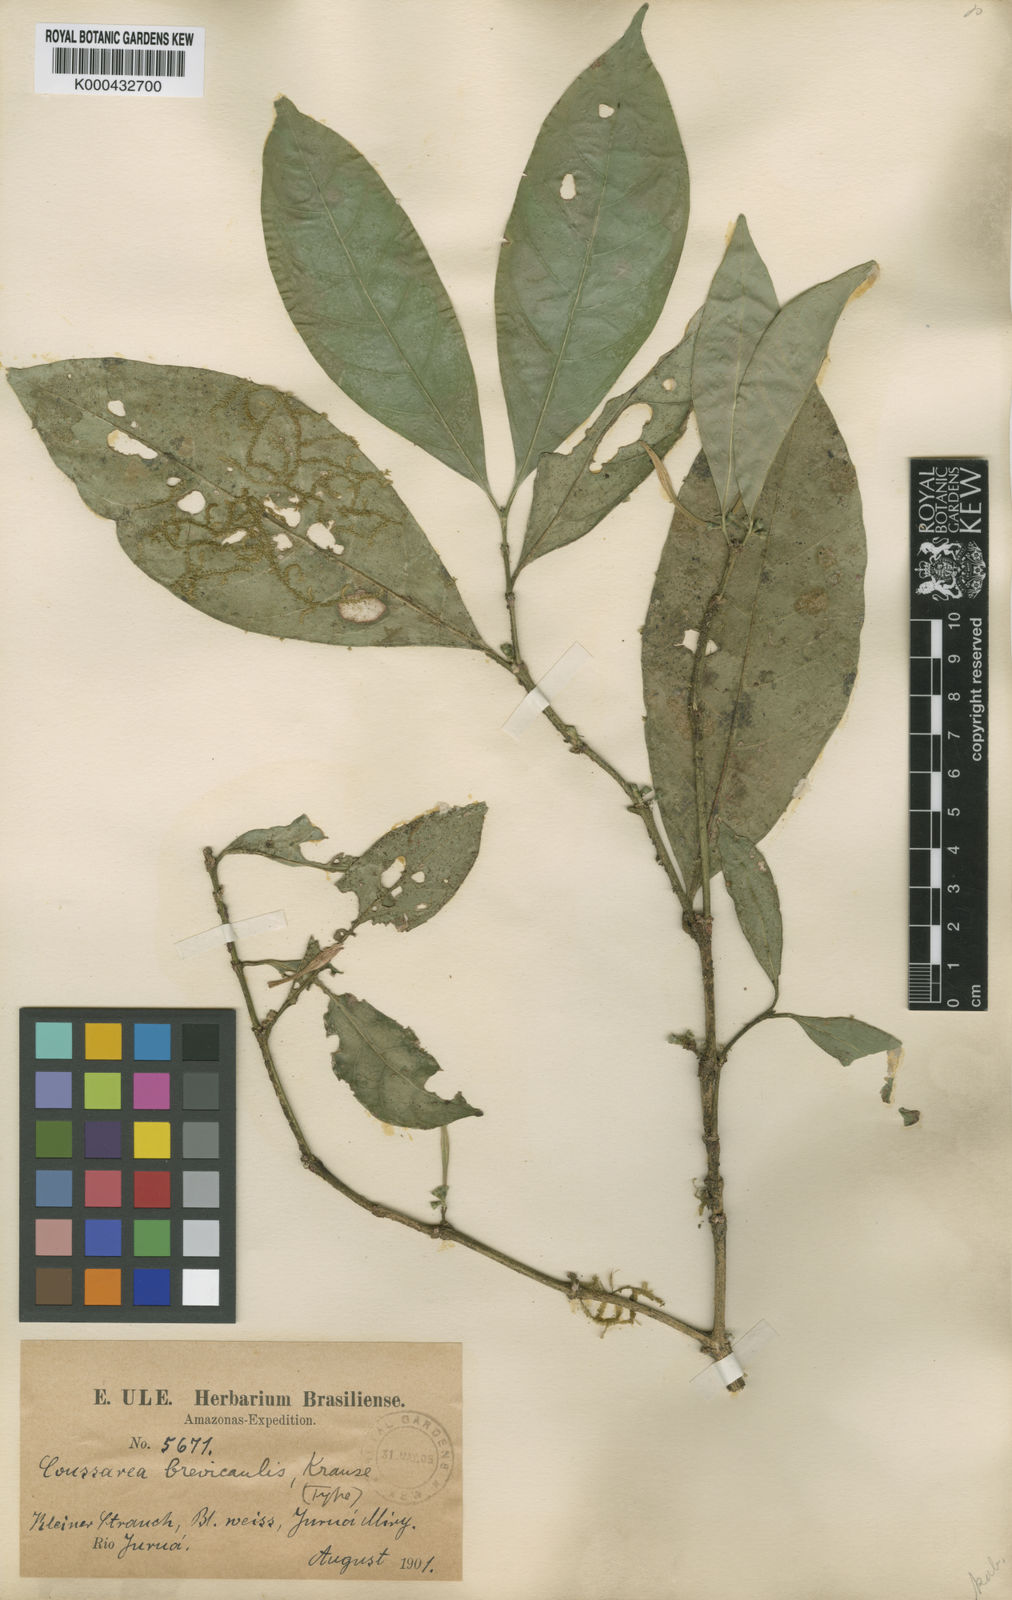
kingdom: Plantae
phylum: Tracheophyta
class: Magnoliopsida
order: Gentianales
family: Rubiaceae
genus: Coussarea
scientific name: Coussarea brevicaulis
